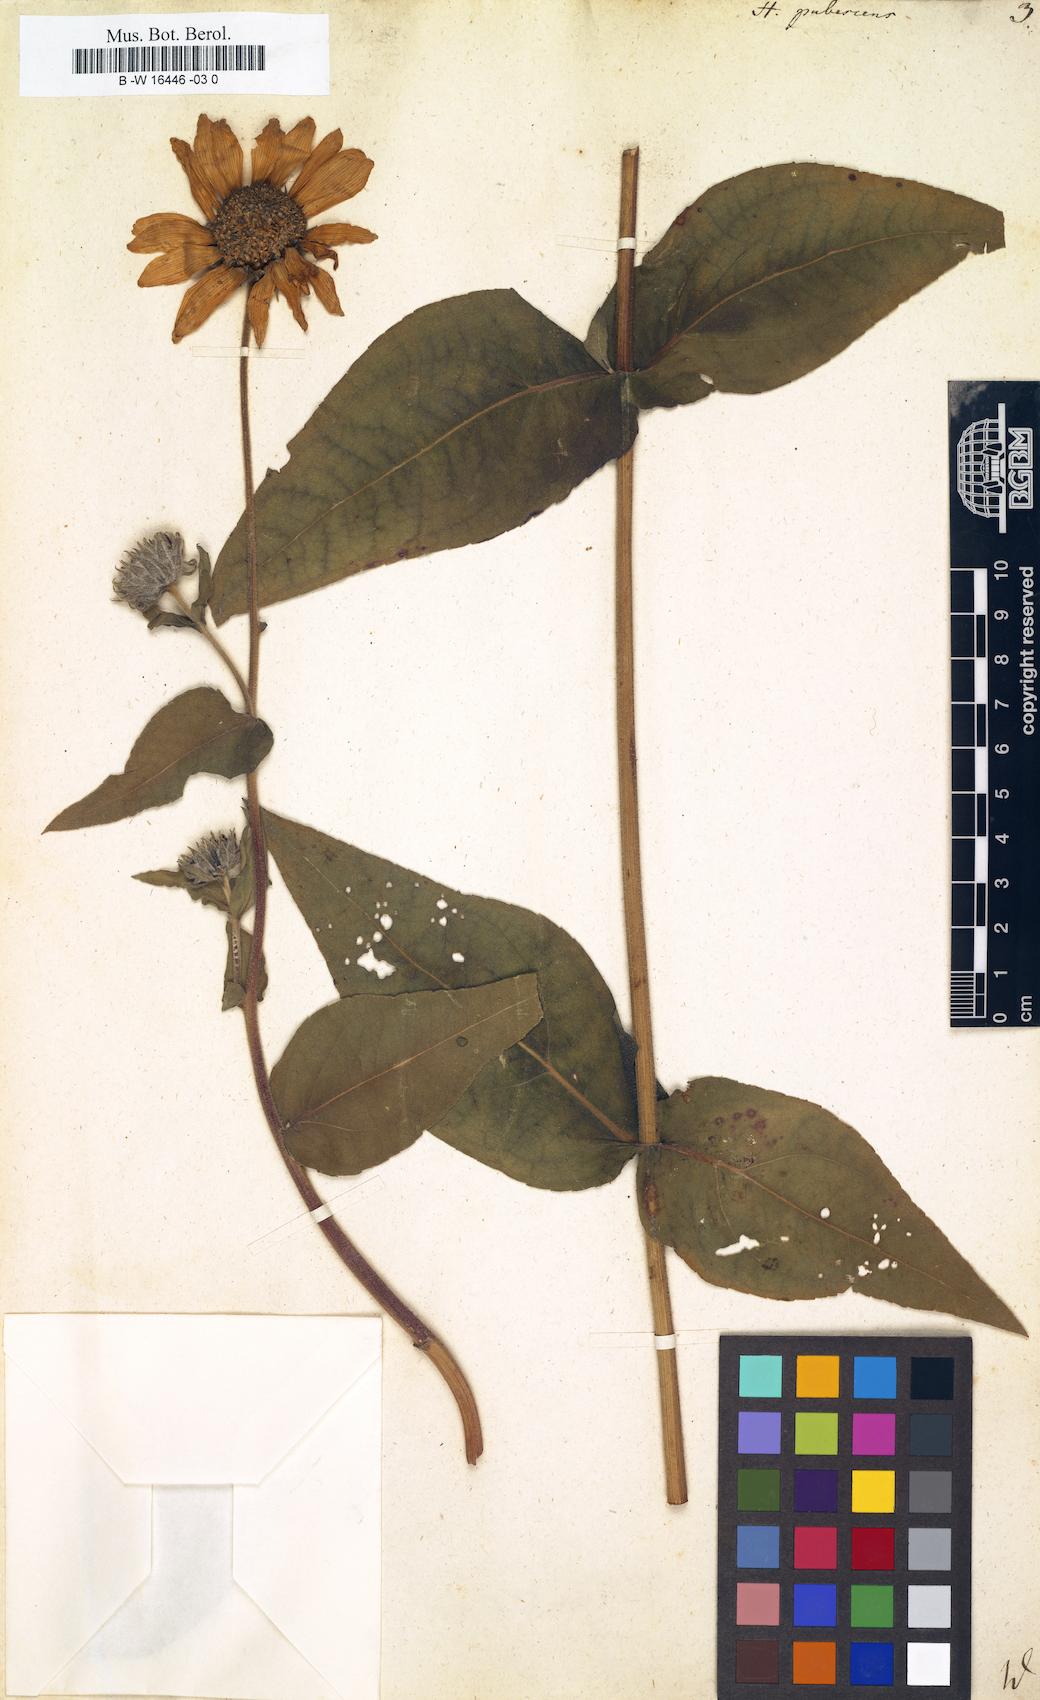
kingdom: Plantae
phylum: Tracheophyta
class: Magnoliopsida
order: Asterales
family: Asteraceae
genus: Helianthus
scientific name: Helianthus pubescens
